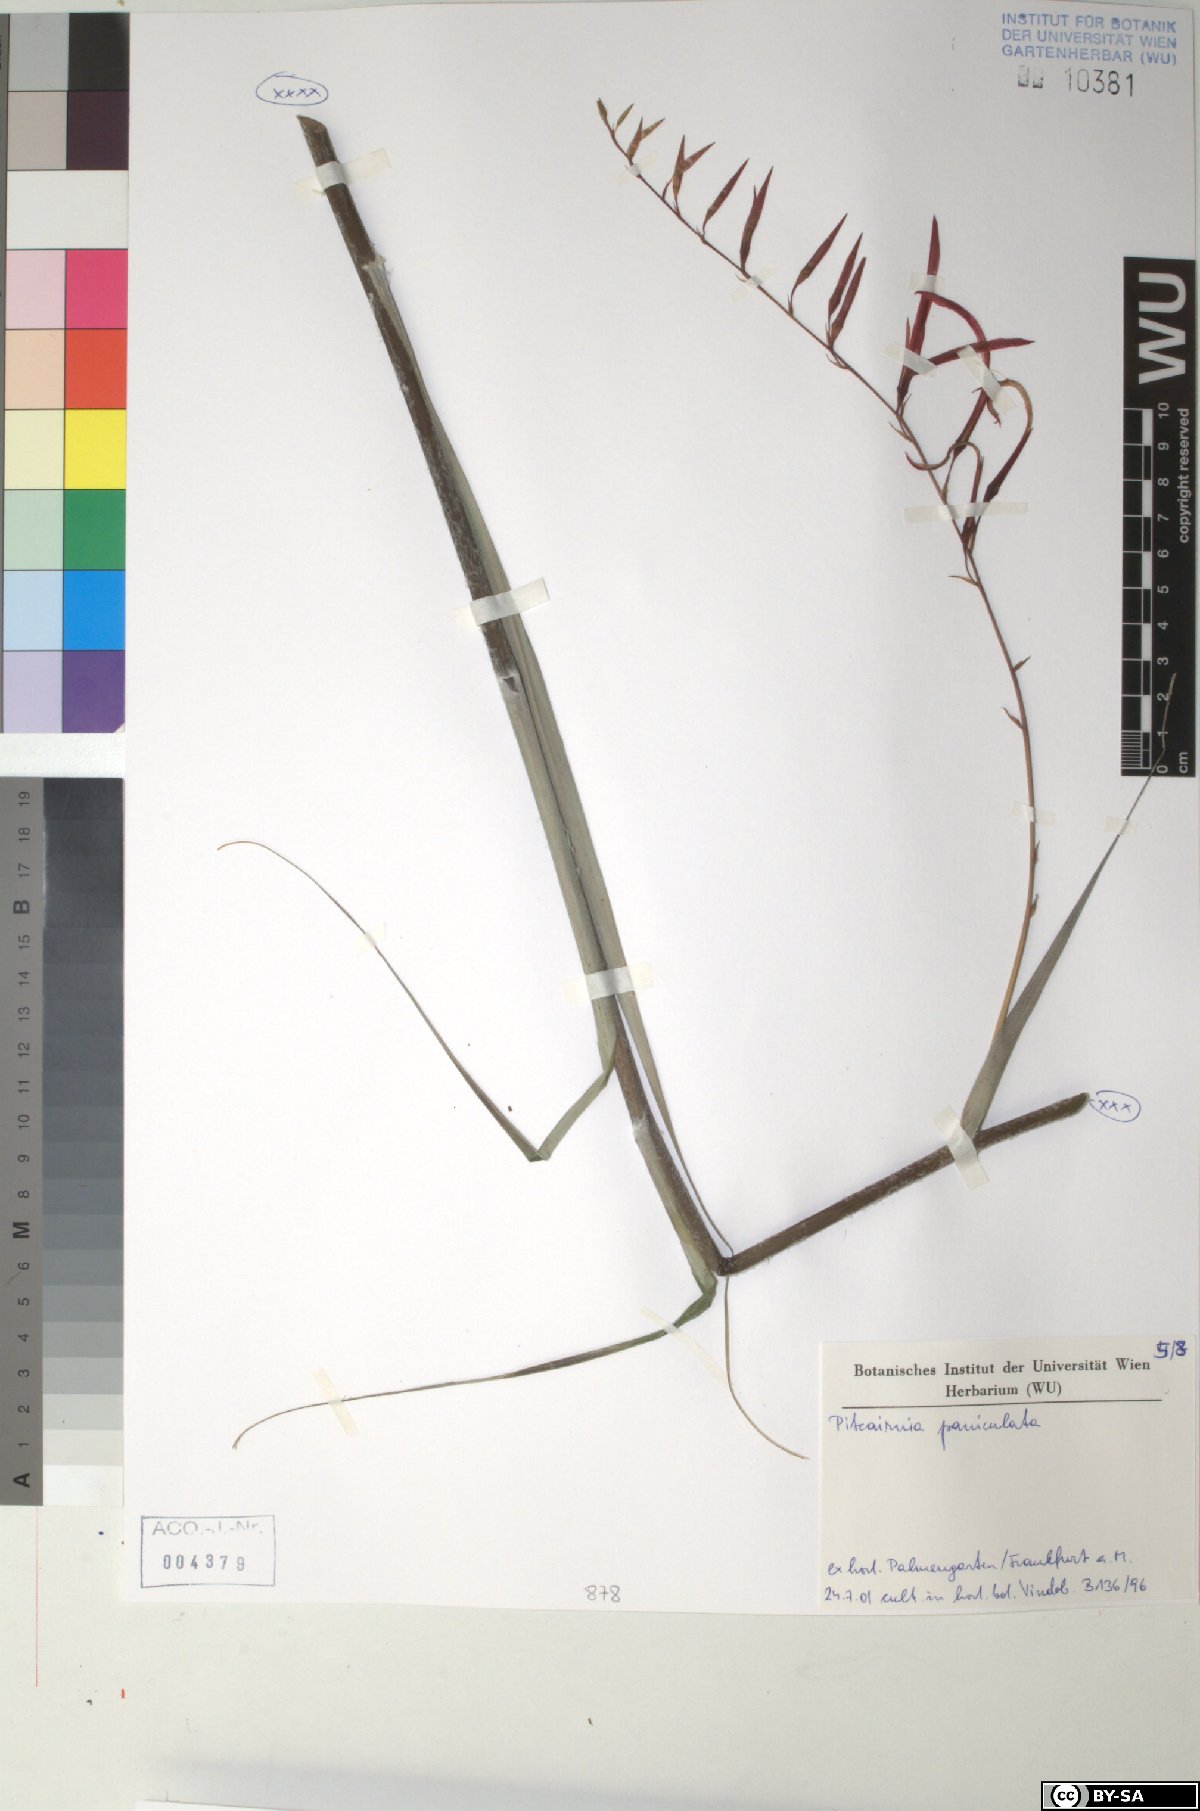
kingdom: Plantae
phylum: Tracheophyta
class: Liliopsida
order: Poales
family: Bromeliaceae
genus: Pitcairnia
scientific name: Pitcairnia paniculata
